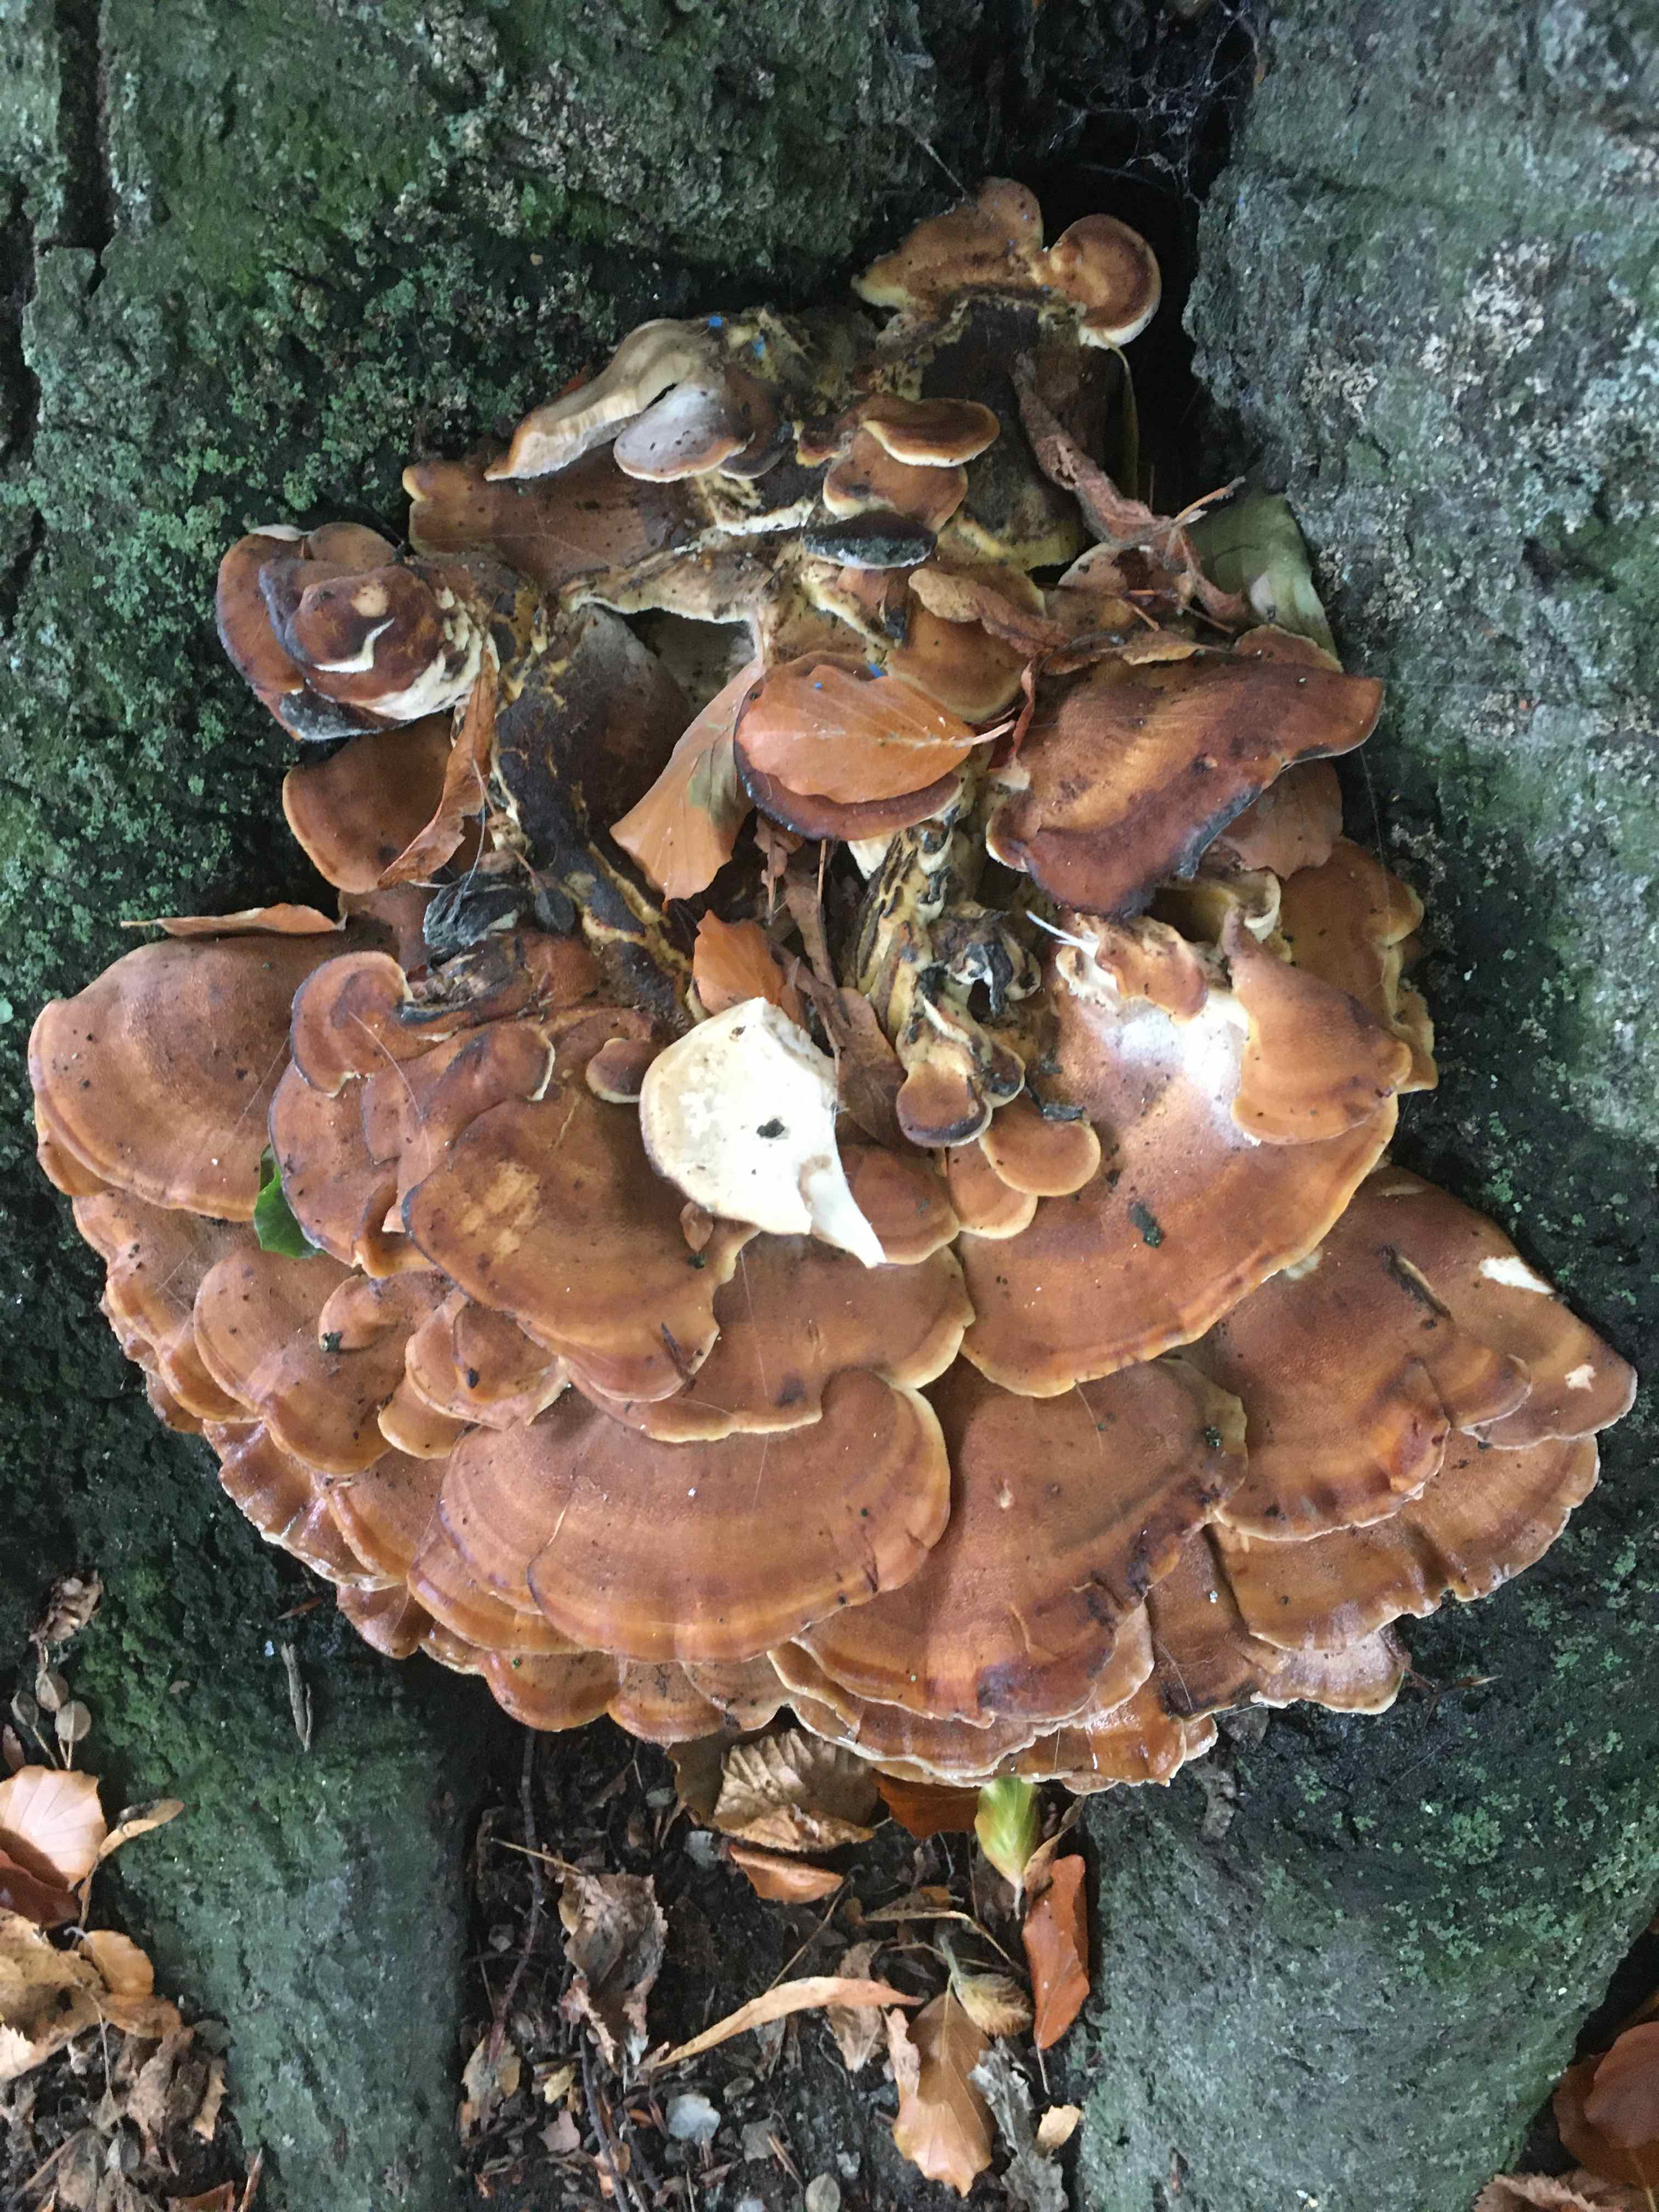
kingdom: Fungi
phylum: Basidiomycota
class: Agaricomycetes
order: Polyporales
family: Meripilaceae
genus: Meripilus
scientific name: Meripilus giganteus
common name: kæmpeporesvamp
